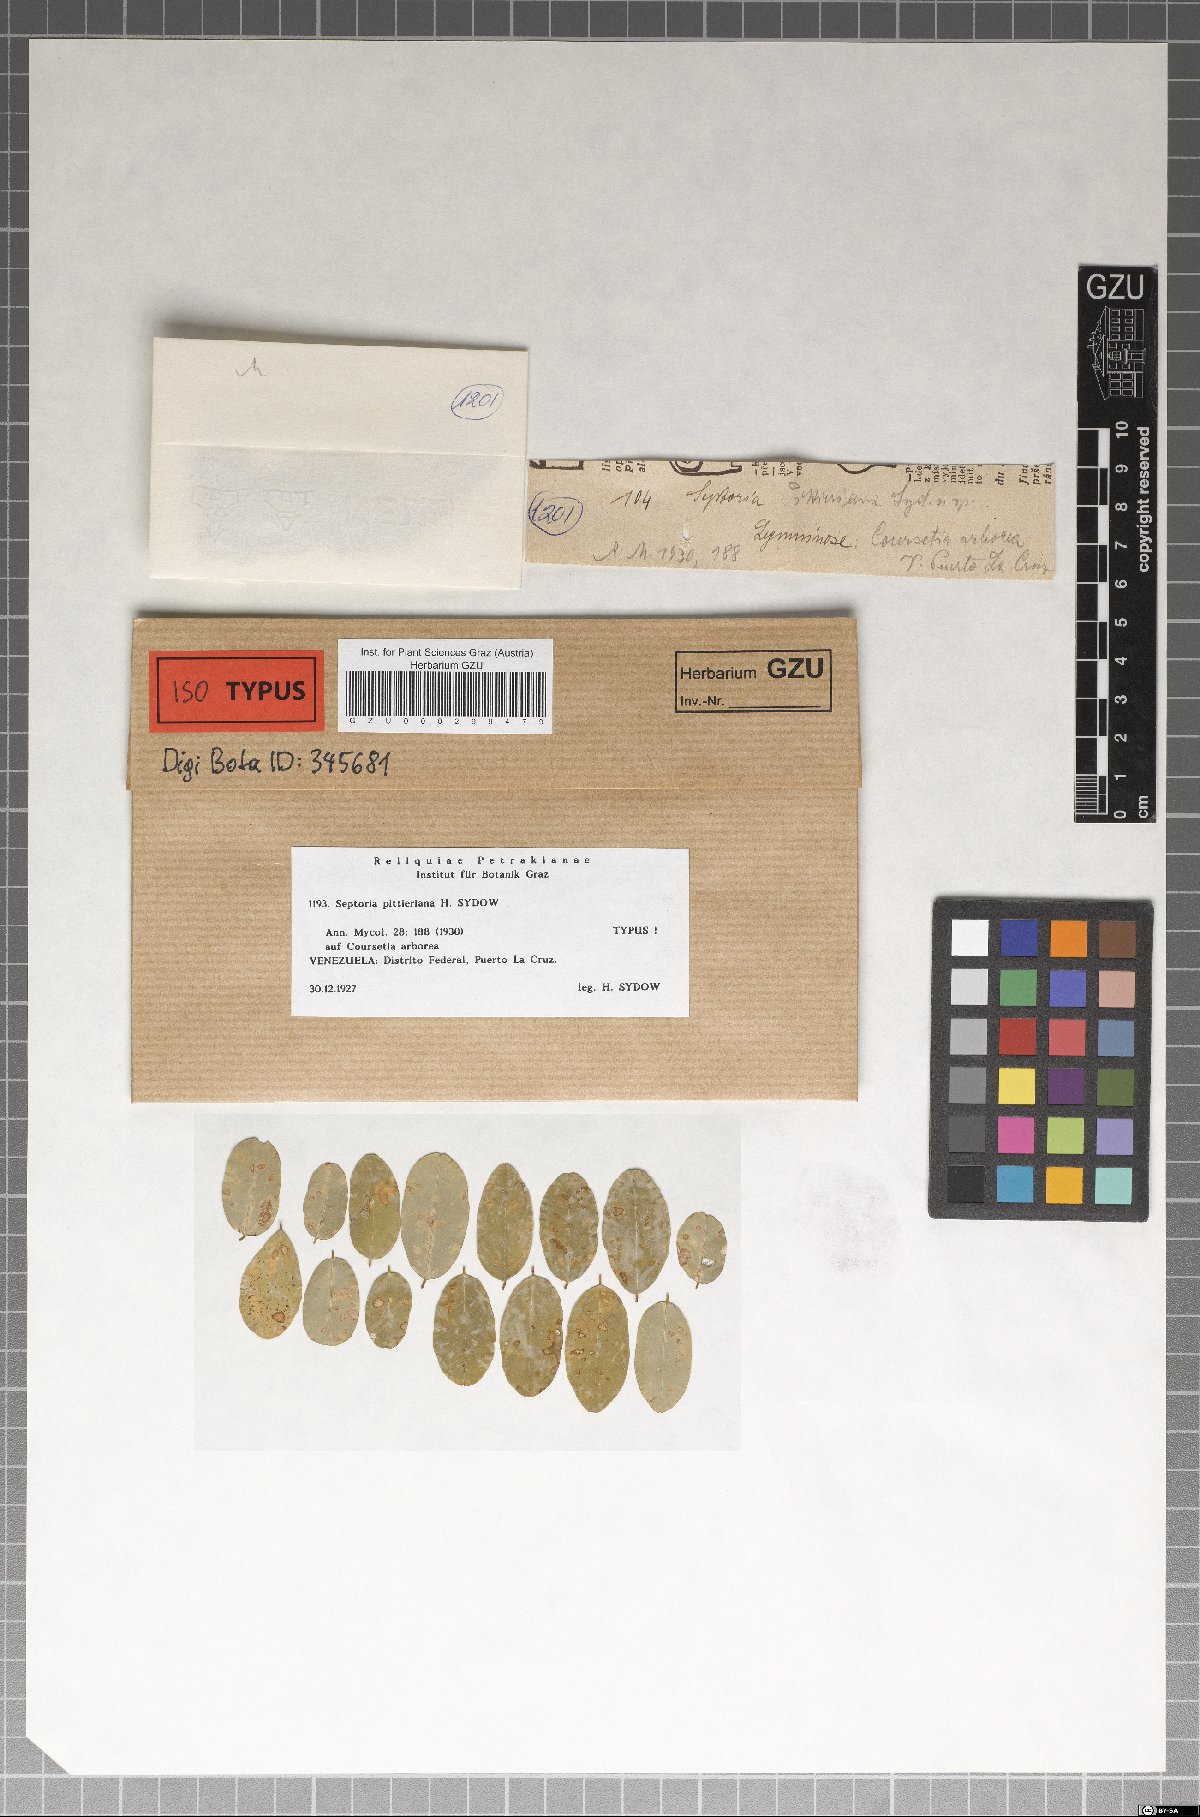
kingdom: Fungi
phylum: Ascomycota
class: Dothideomycetes
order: Mycosphaerellales
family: Mycosphaerellaceae
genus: Septoria
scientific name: Septoria pittieriana
